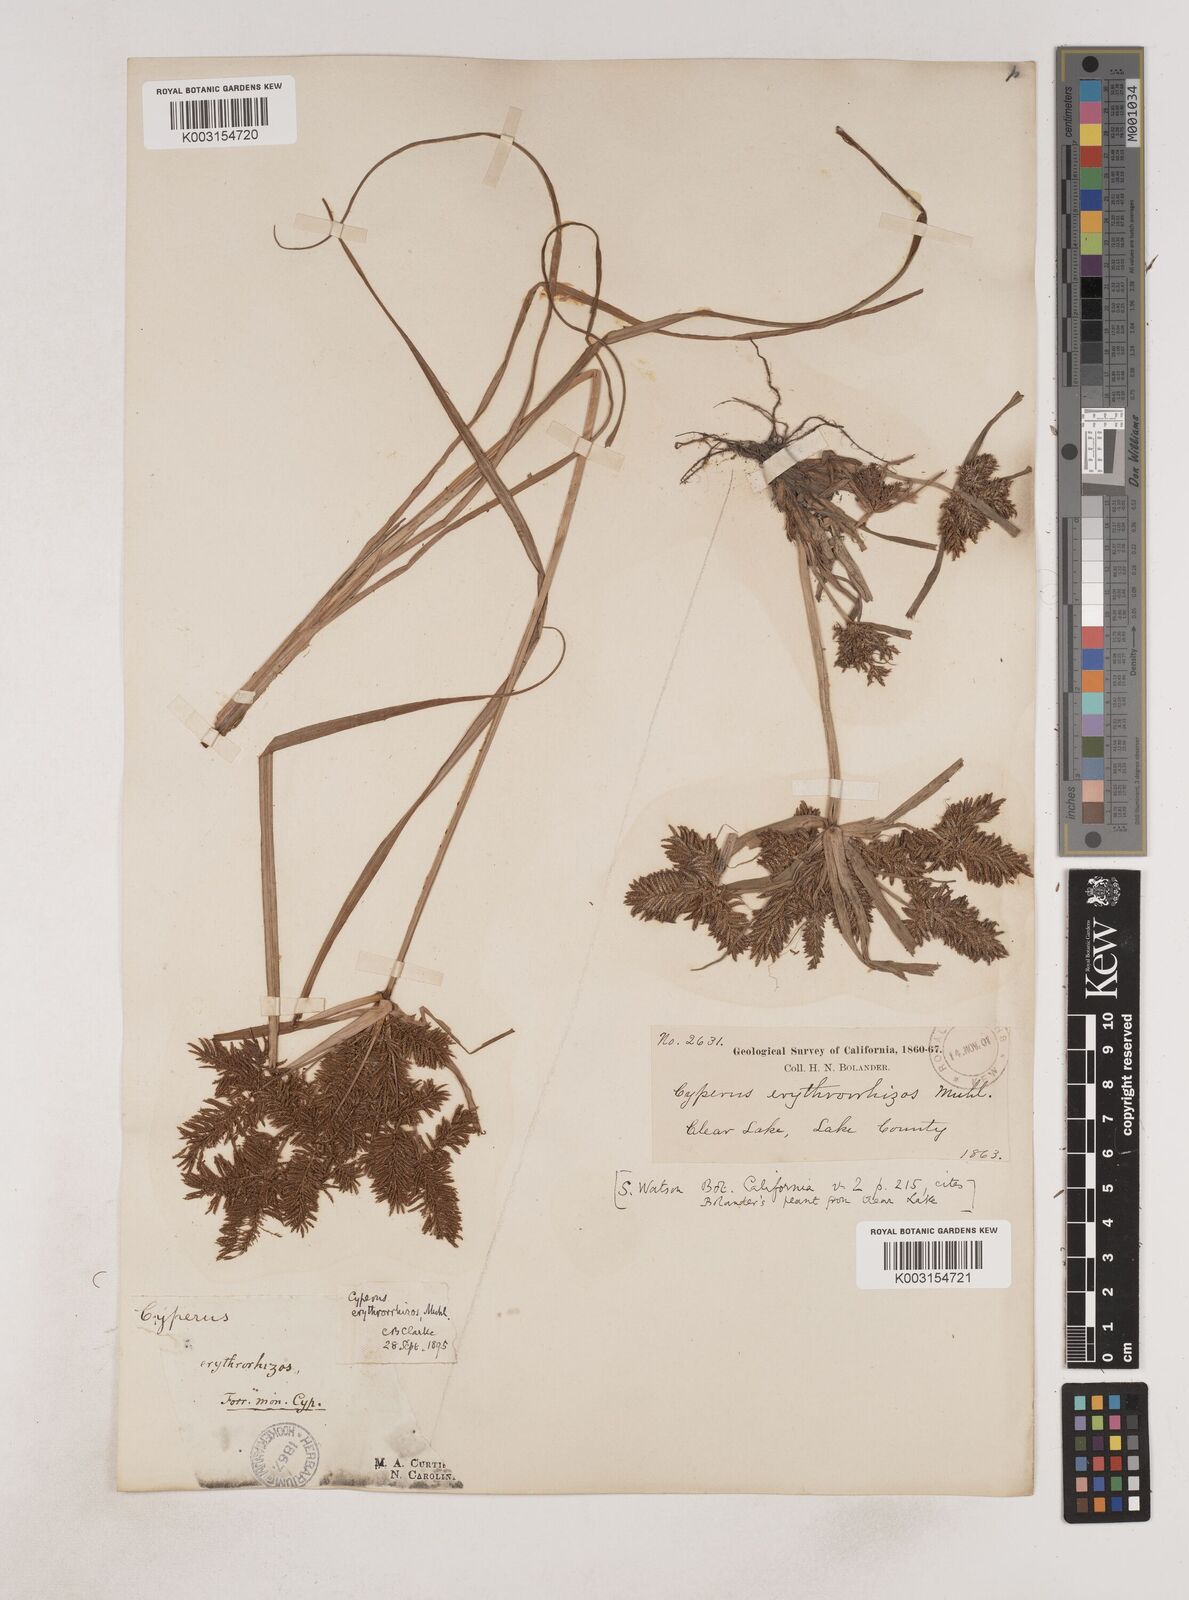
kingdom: Plantae
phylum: Tracheophyta
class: Liliopsida
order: Poales
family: Cyperaceae
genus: Cyperus
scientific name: Cyperus erythrorhizos
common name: Red-root flat sedge
